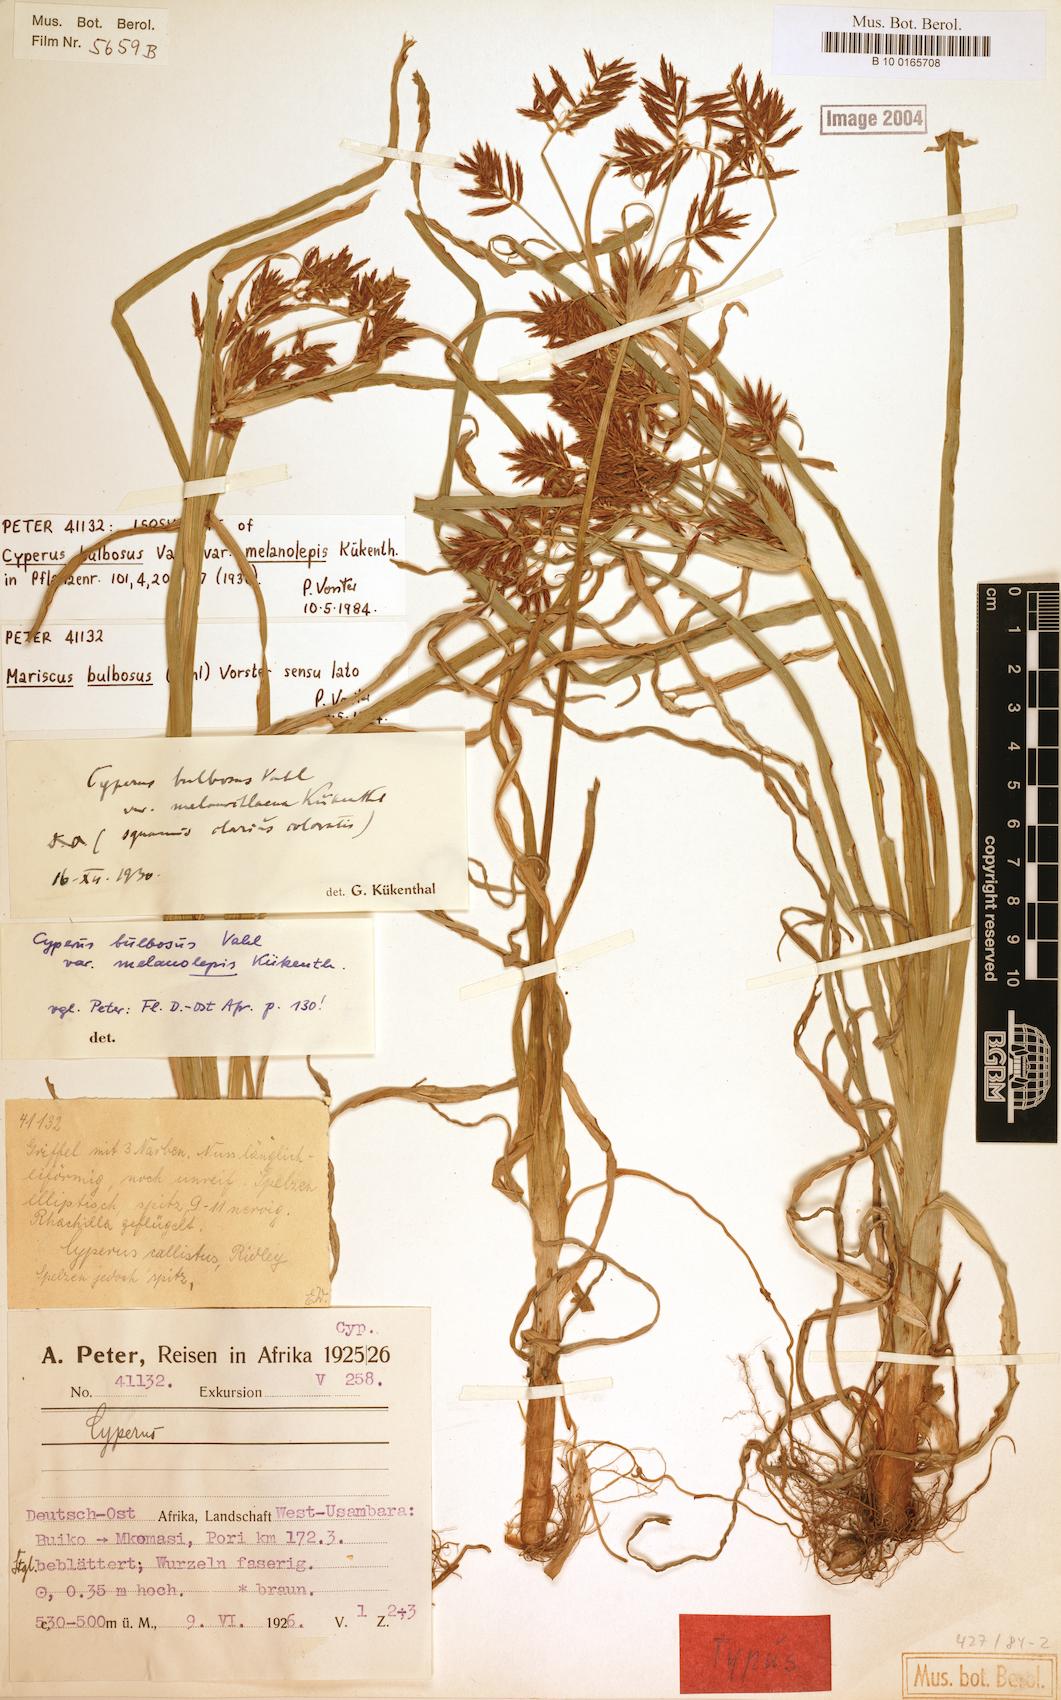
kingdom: Plantae
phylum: Tracheophyta
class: Liliopsida
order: Poales
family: Cyperaceae
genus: Cyperus
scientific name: Cyperus bulbosus
